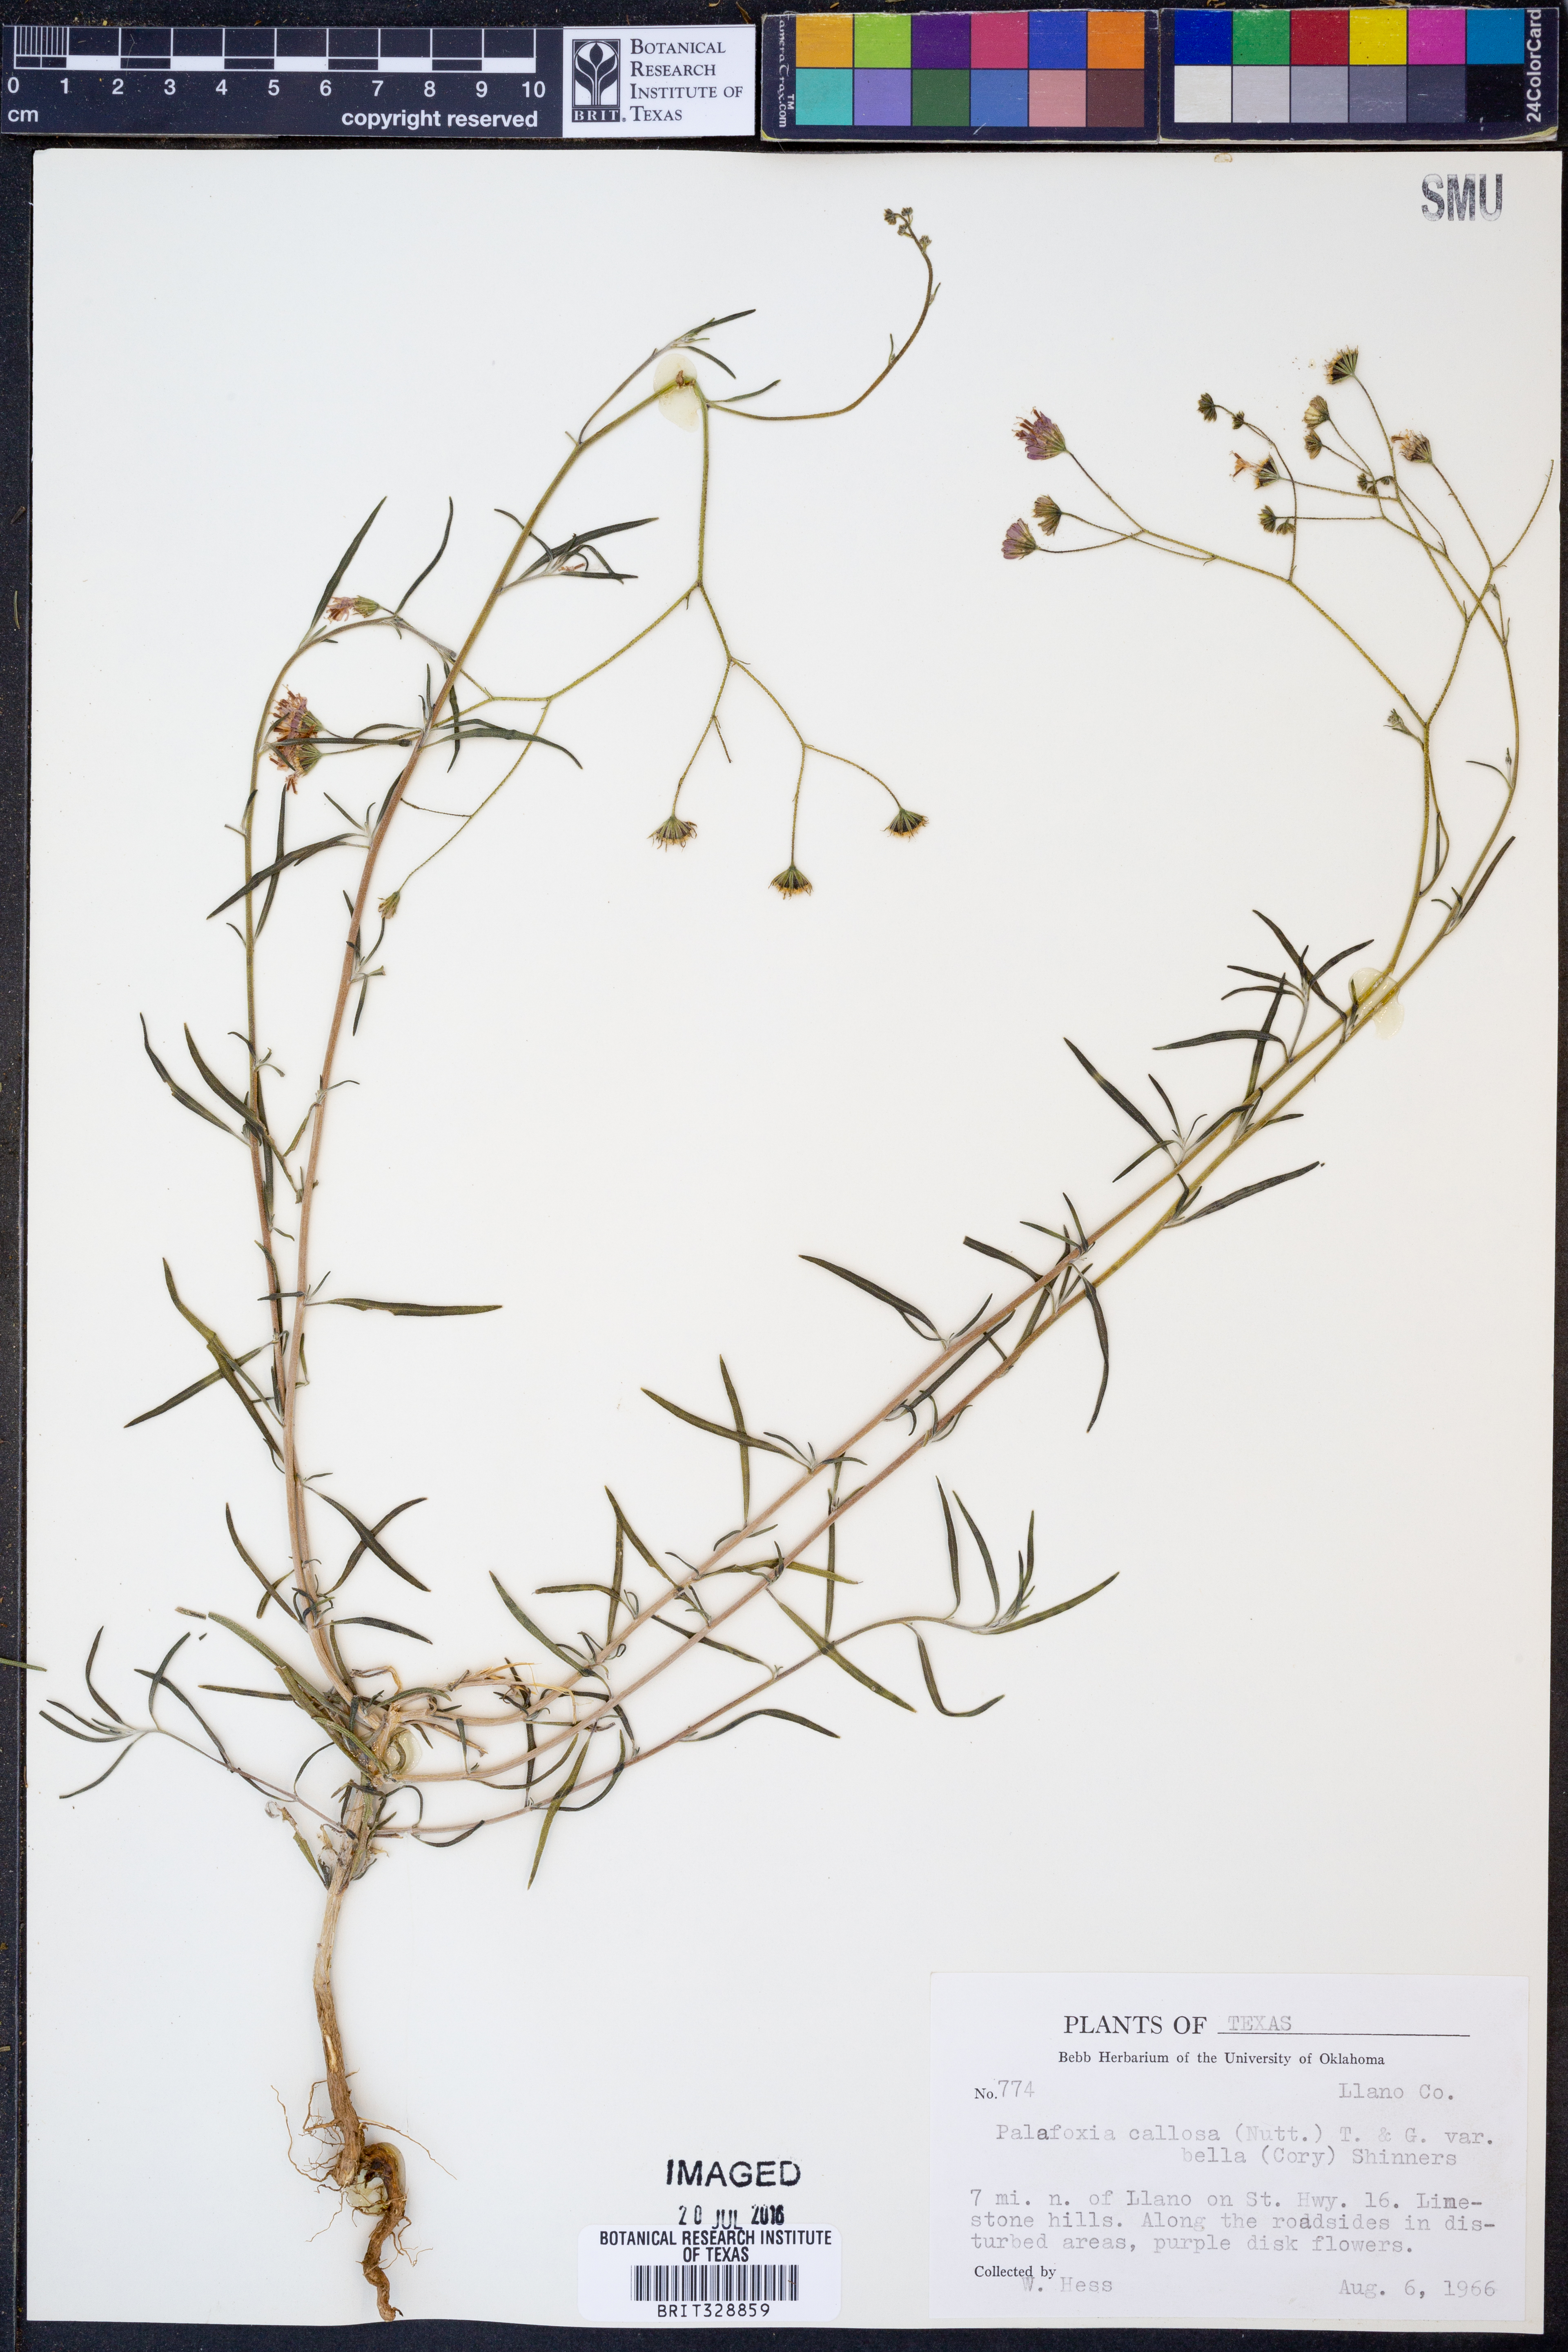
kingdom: Plantae
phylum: Tracheophyta
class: Magnoliopsida
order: Asterales
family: Asteraceae
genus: Palafoxia
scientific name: Palafoxia callosa
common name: Small palafox
